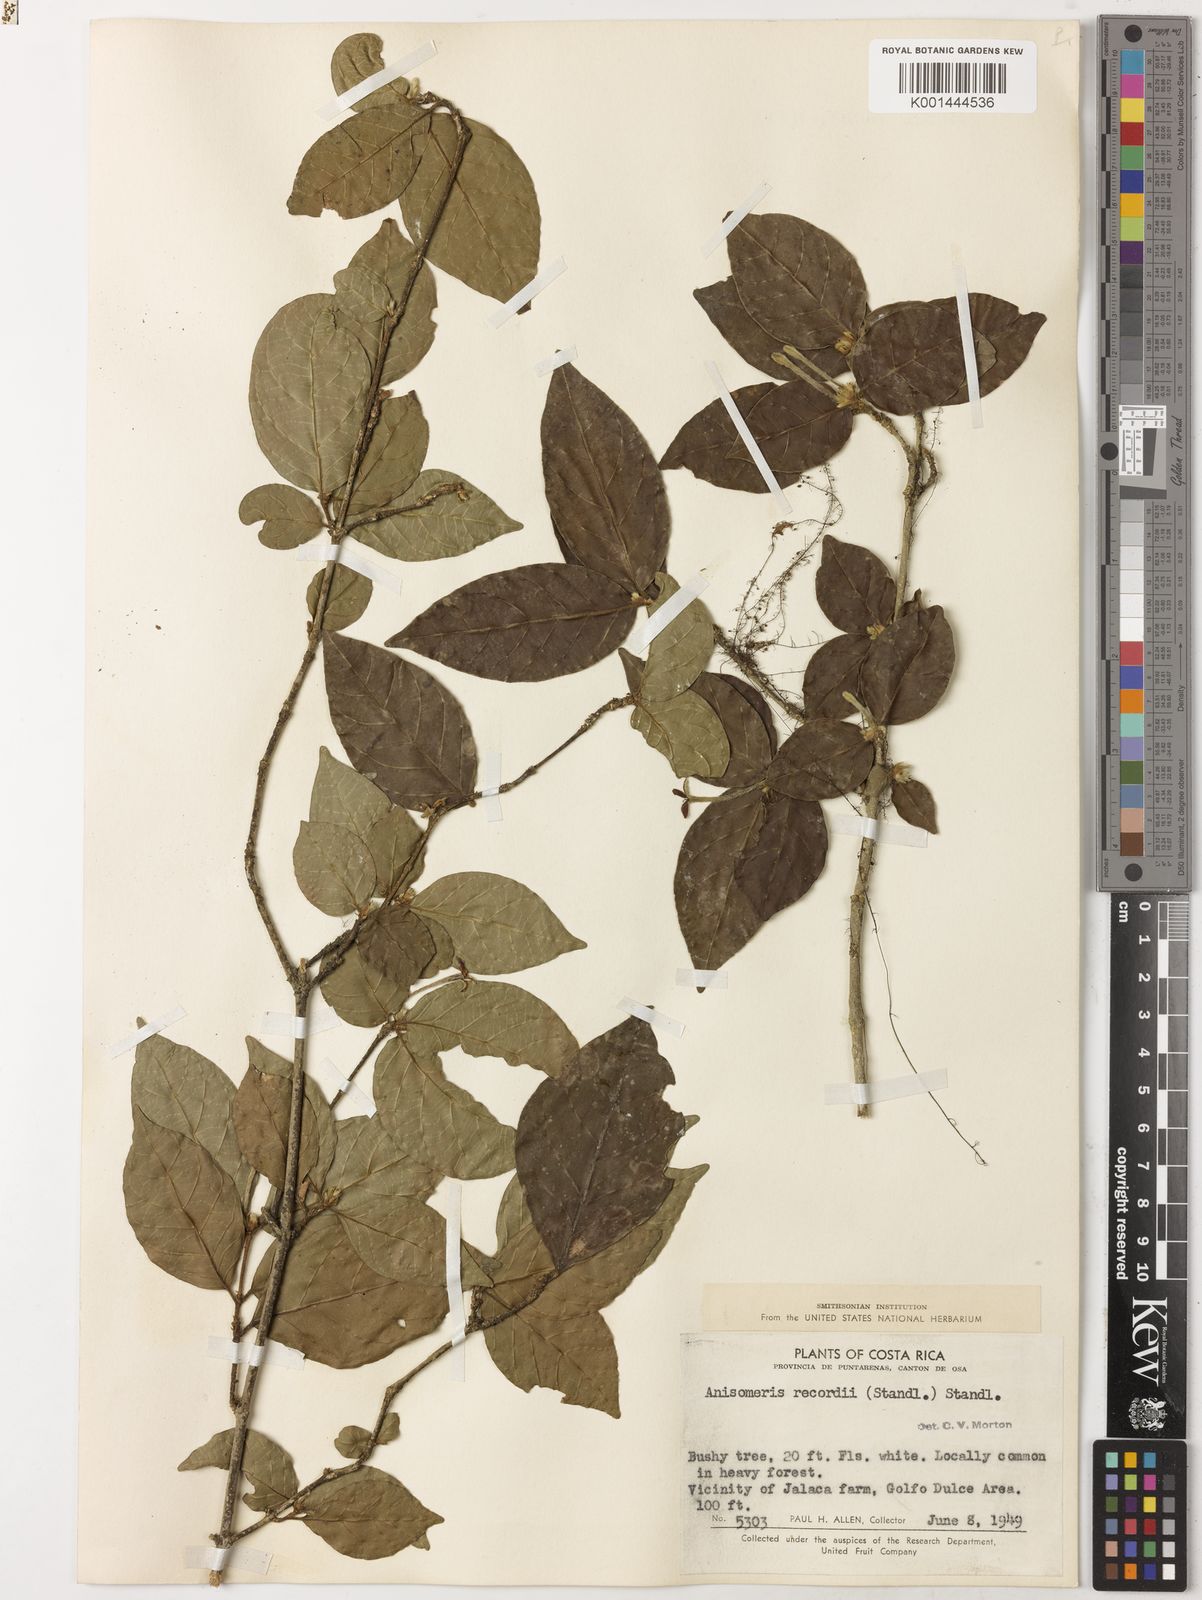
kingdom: Plantae
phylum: Tracheophyta
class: Magnoliopsida
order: Gentianales
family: Rubiaceae
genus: Chomelia
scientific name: Chomelia recordii
